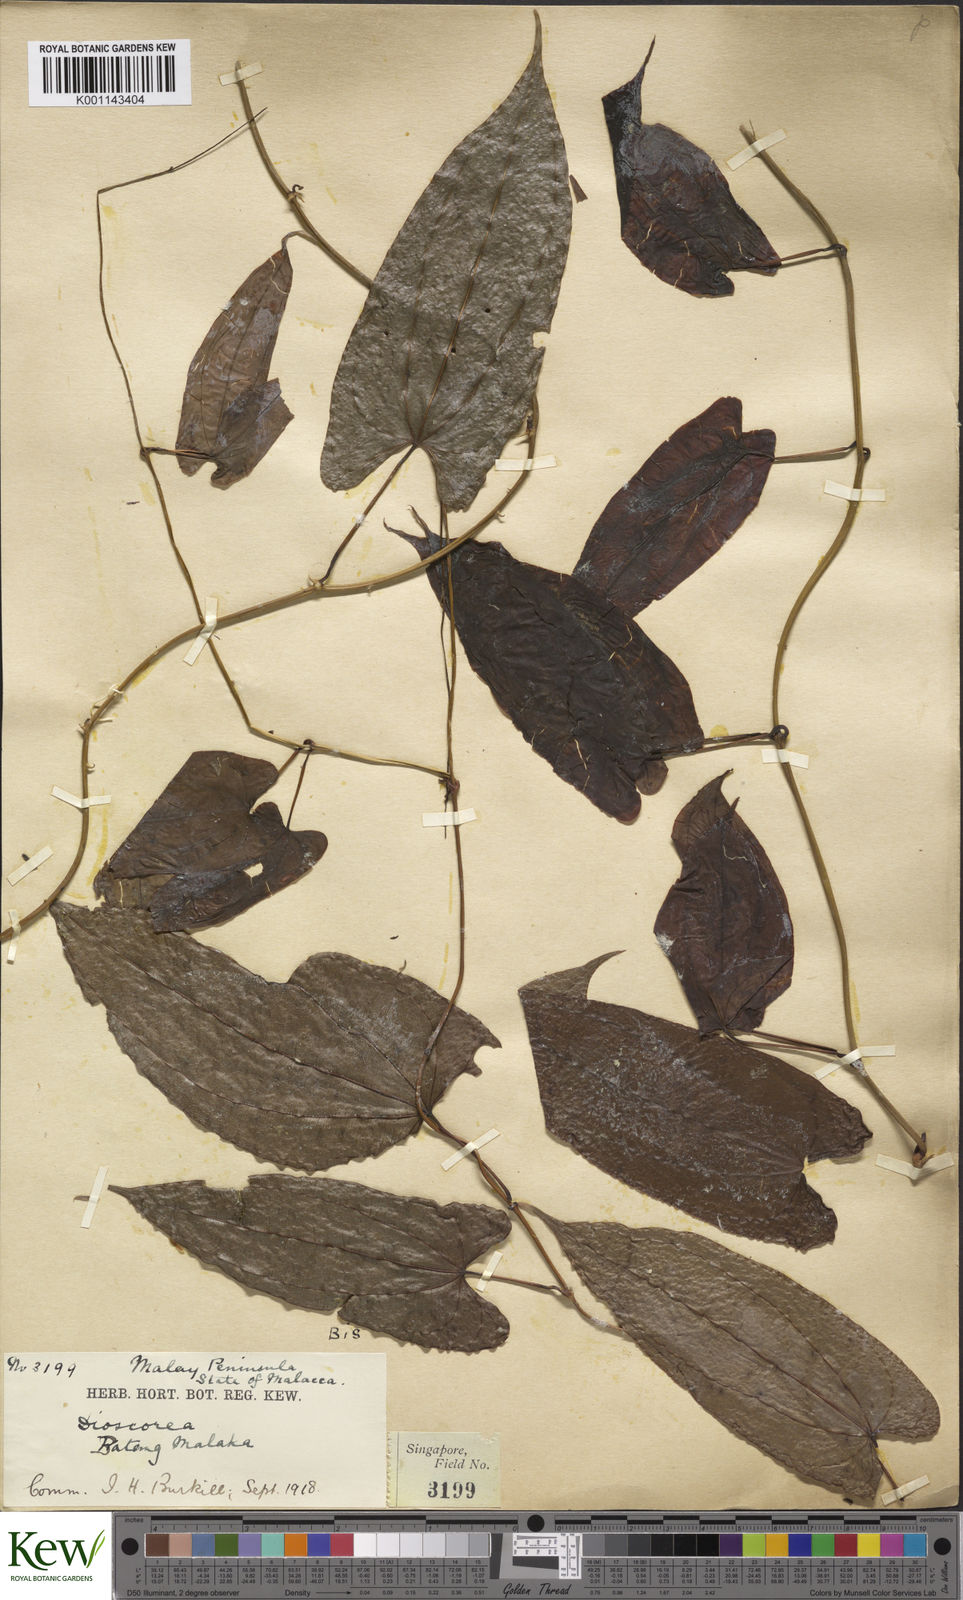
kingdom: Plantae
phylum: Tracheophyta
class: Liliopsida
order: Dioscoreales
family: Dioscoreaceae
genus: Dioscorea
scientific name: Dioscorea pyrifolia
